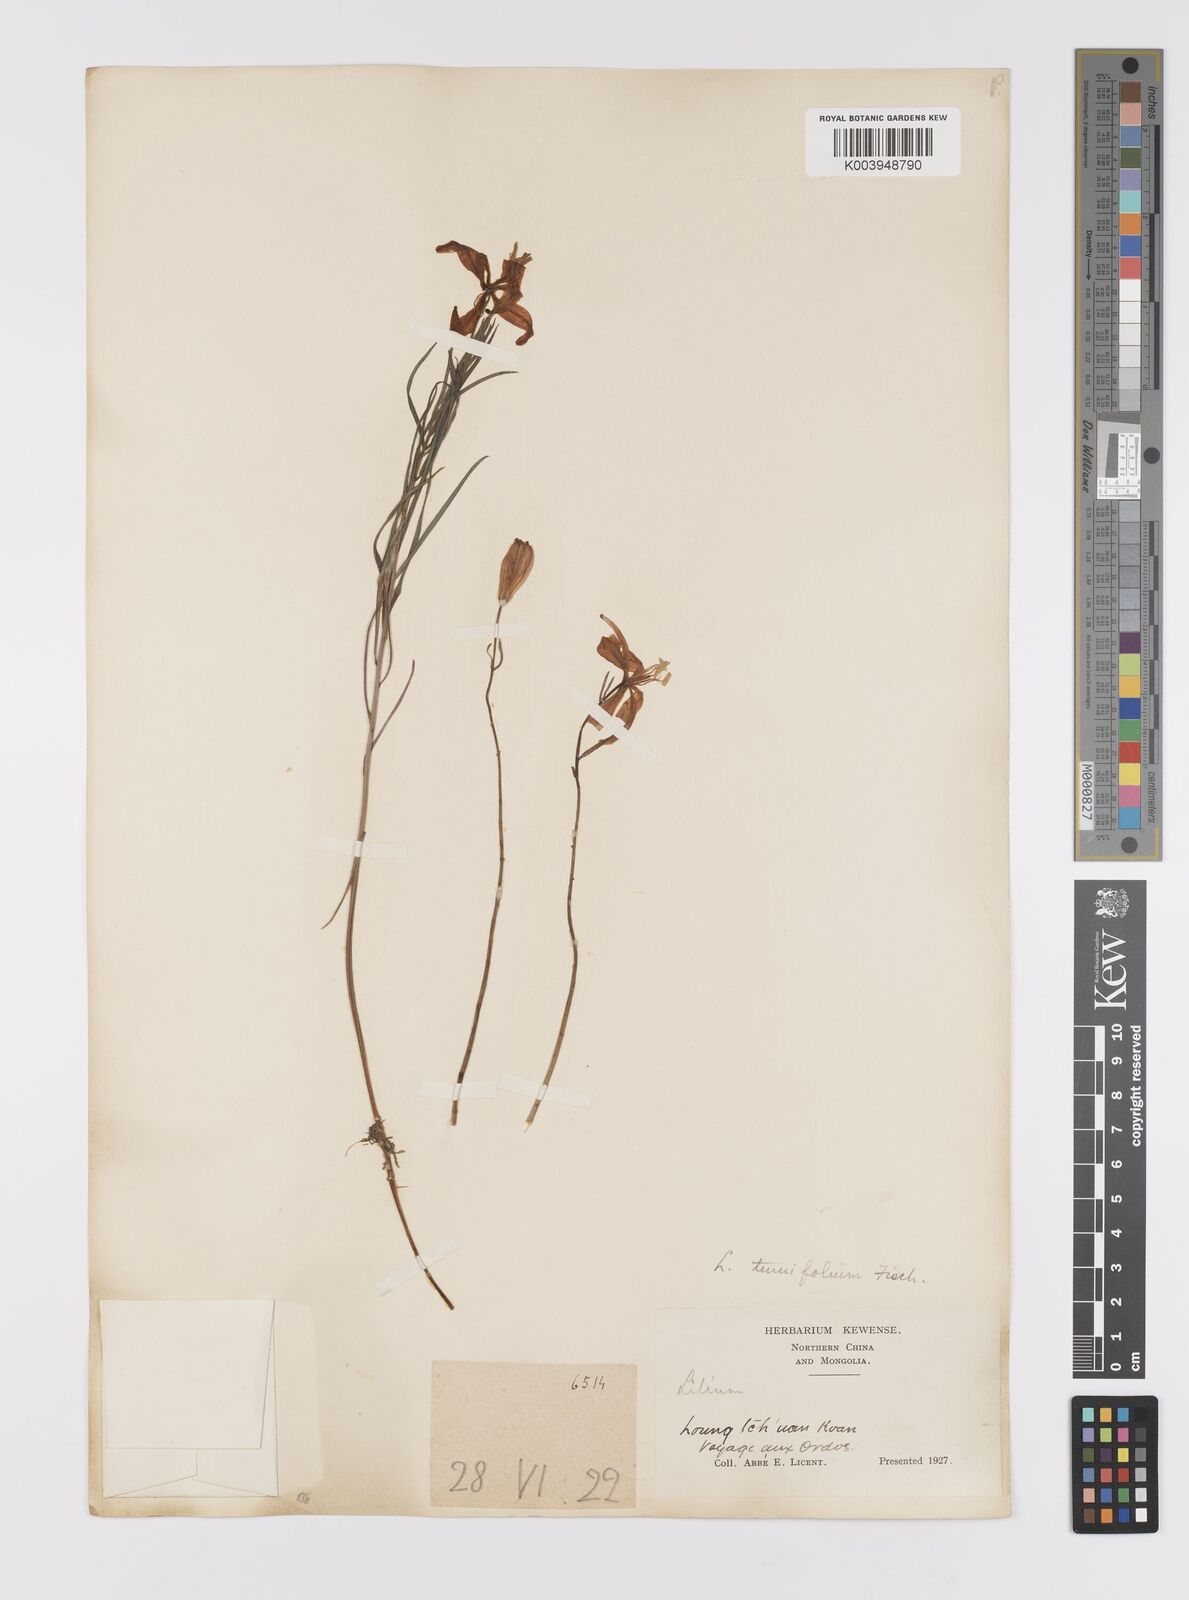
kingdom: Plantae
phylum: Tracheophyta
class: Liliopsida
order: Liliales
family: Liliaceae
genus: Lilium
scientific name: Lilium pumilum
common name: Coral lily
